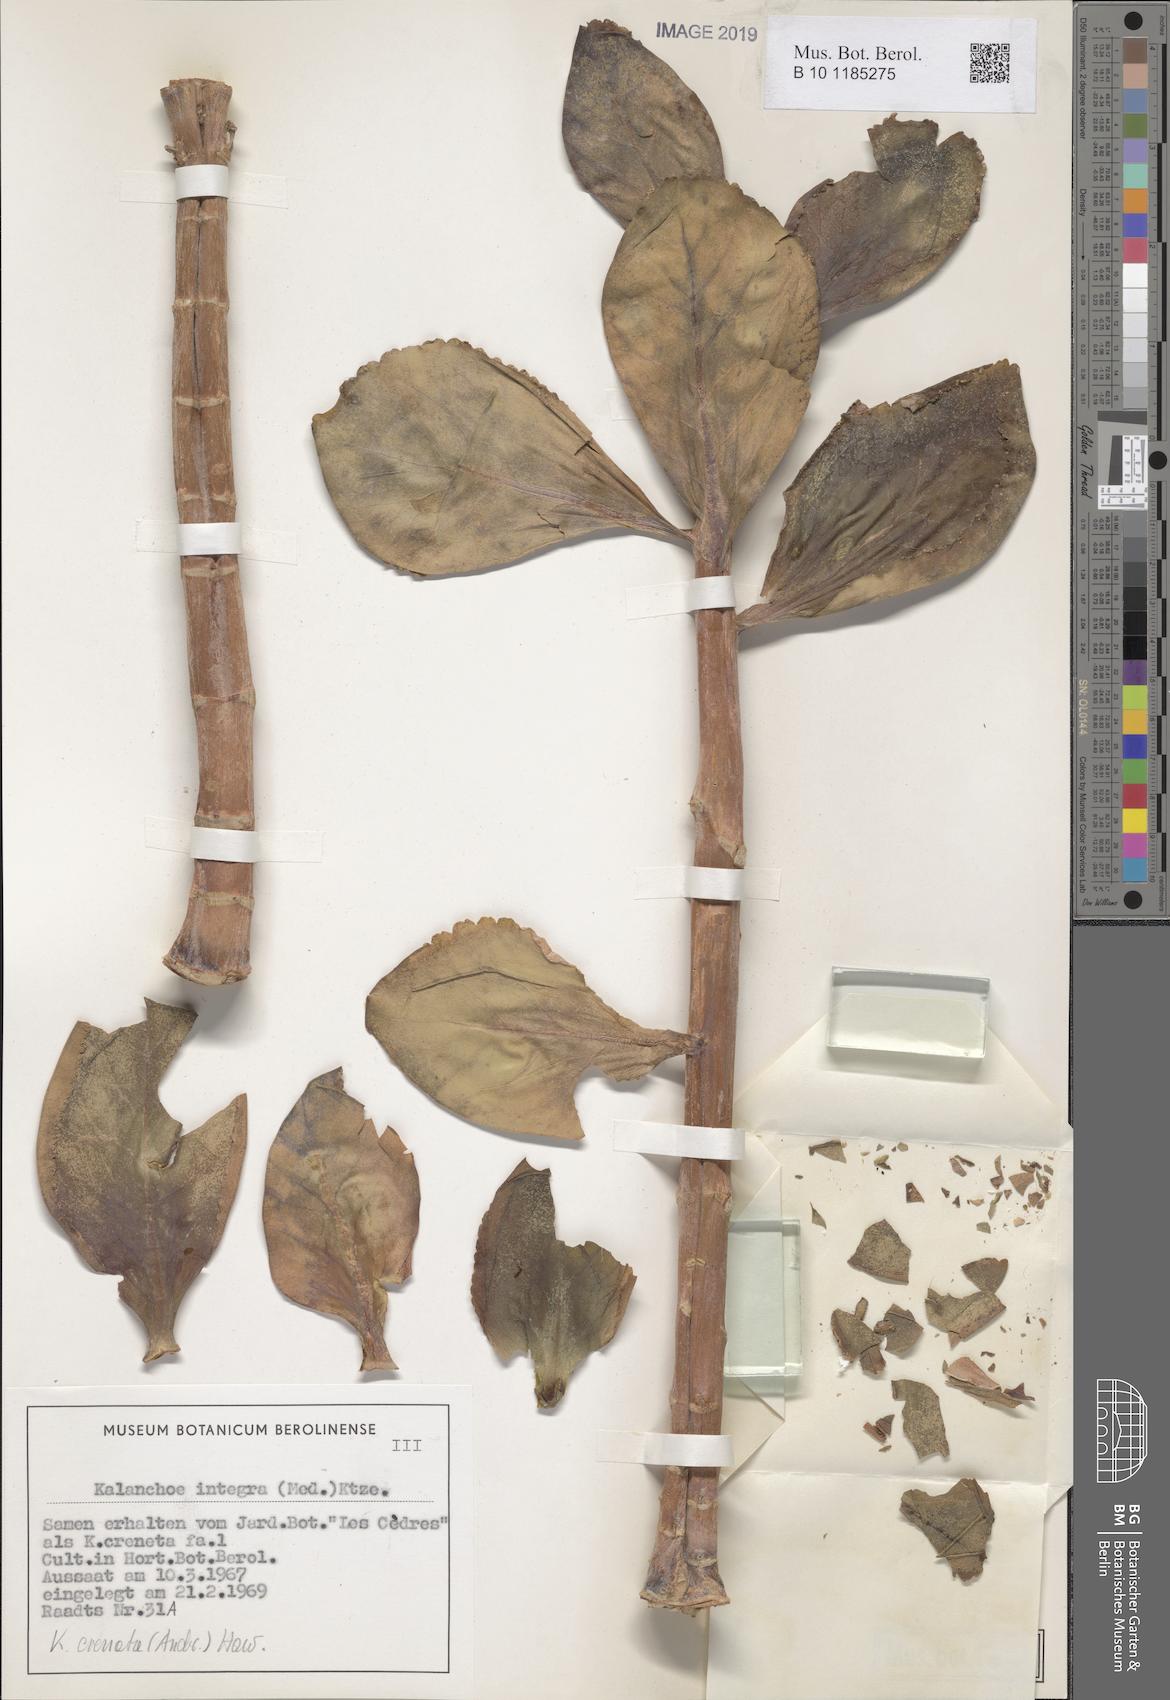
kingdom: Plantae
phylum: Tracheophyta
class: Magnoliopsida
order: Saxifragales
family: Crassulaceae
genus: Kalanchoe
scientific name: Kalanchoe crenata
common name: Neverdie
